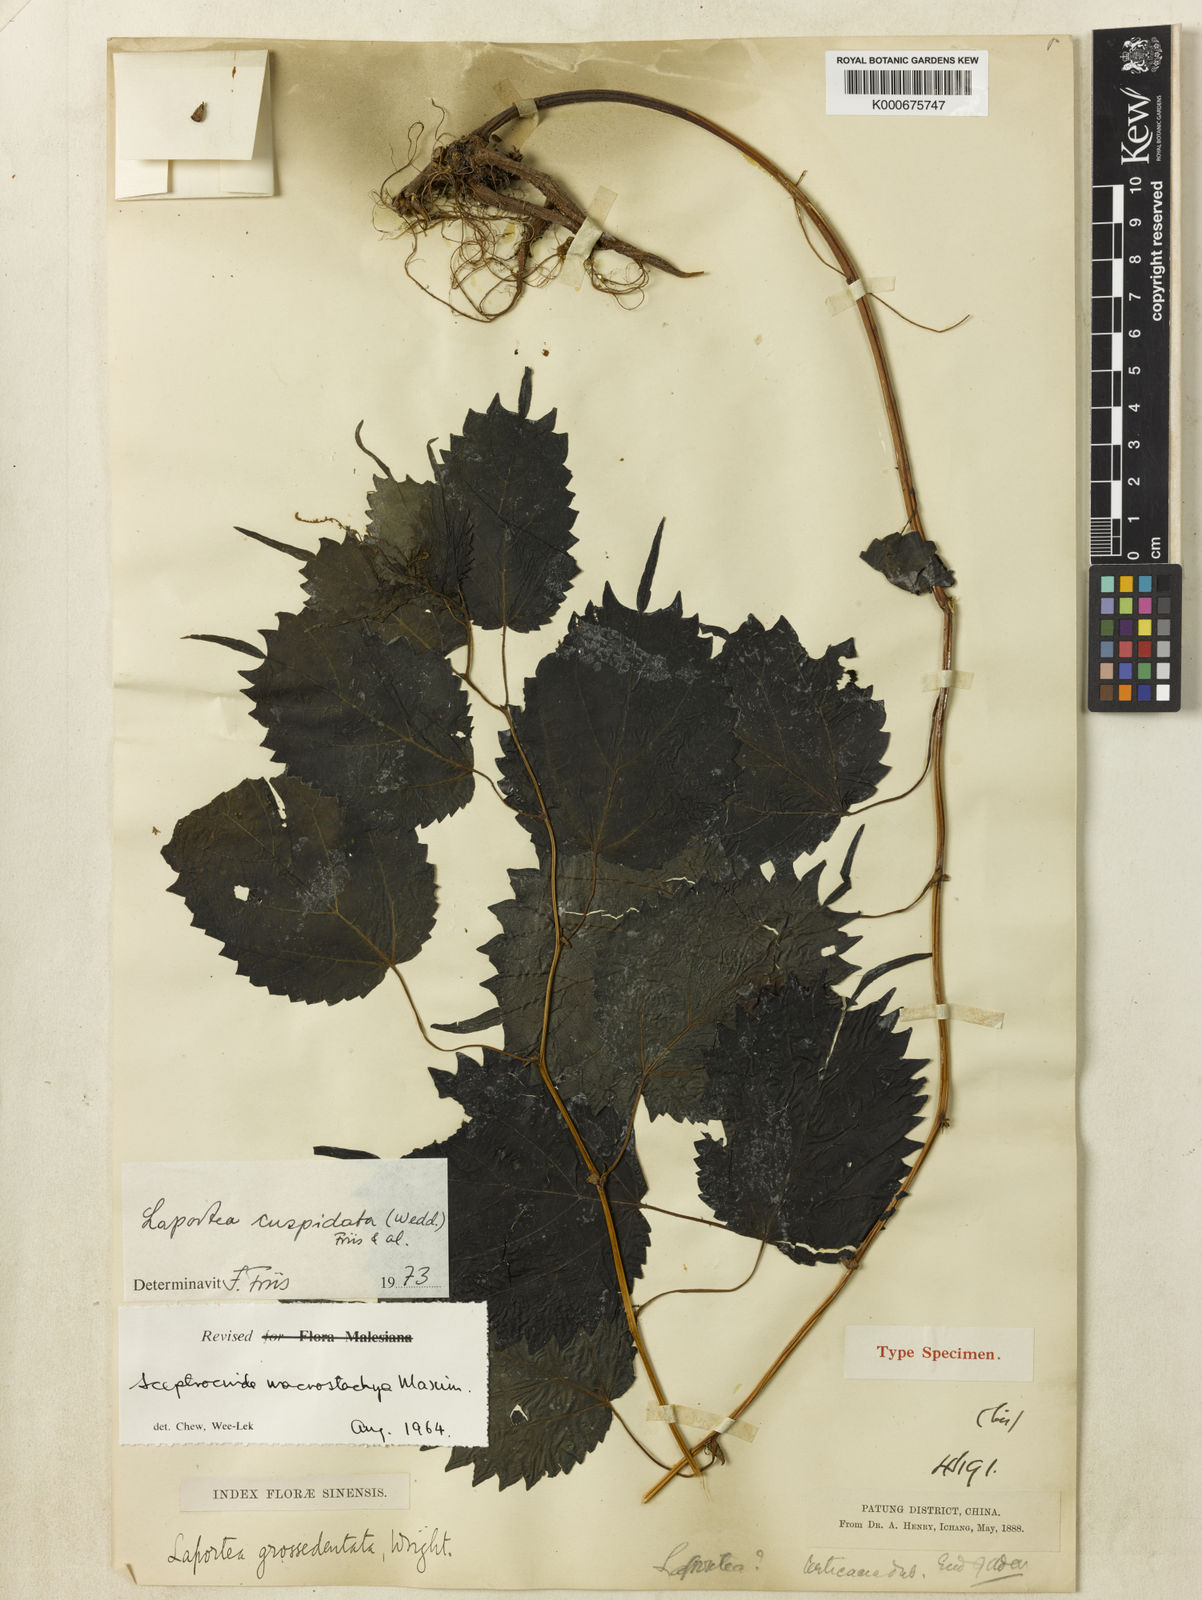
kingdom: Plantae
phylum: Tracheophyta
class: Magnoliopsida
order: Rosales
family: Urticaceae
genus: Laportea
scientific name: Laportea cuspidata
